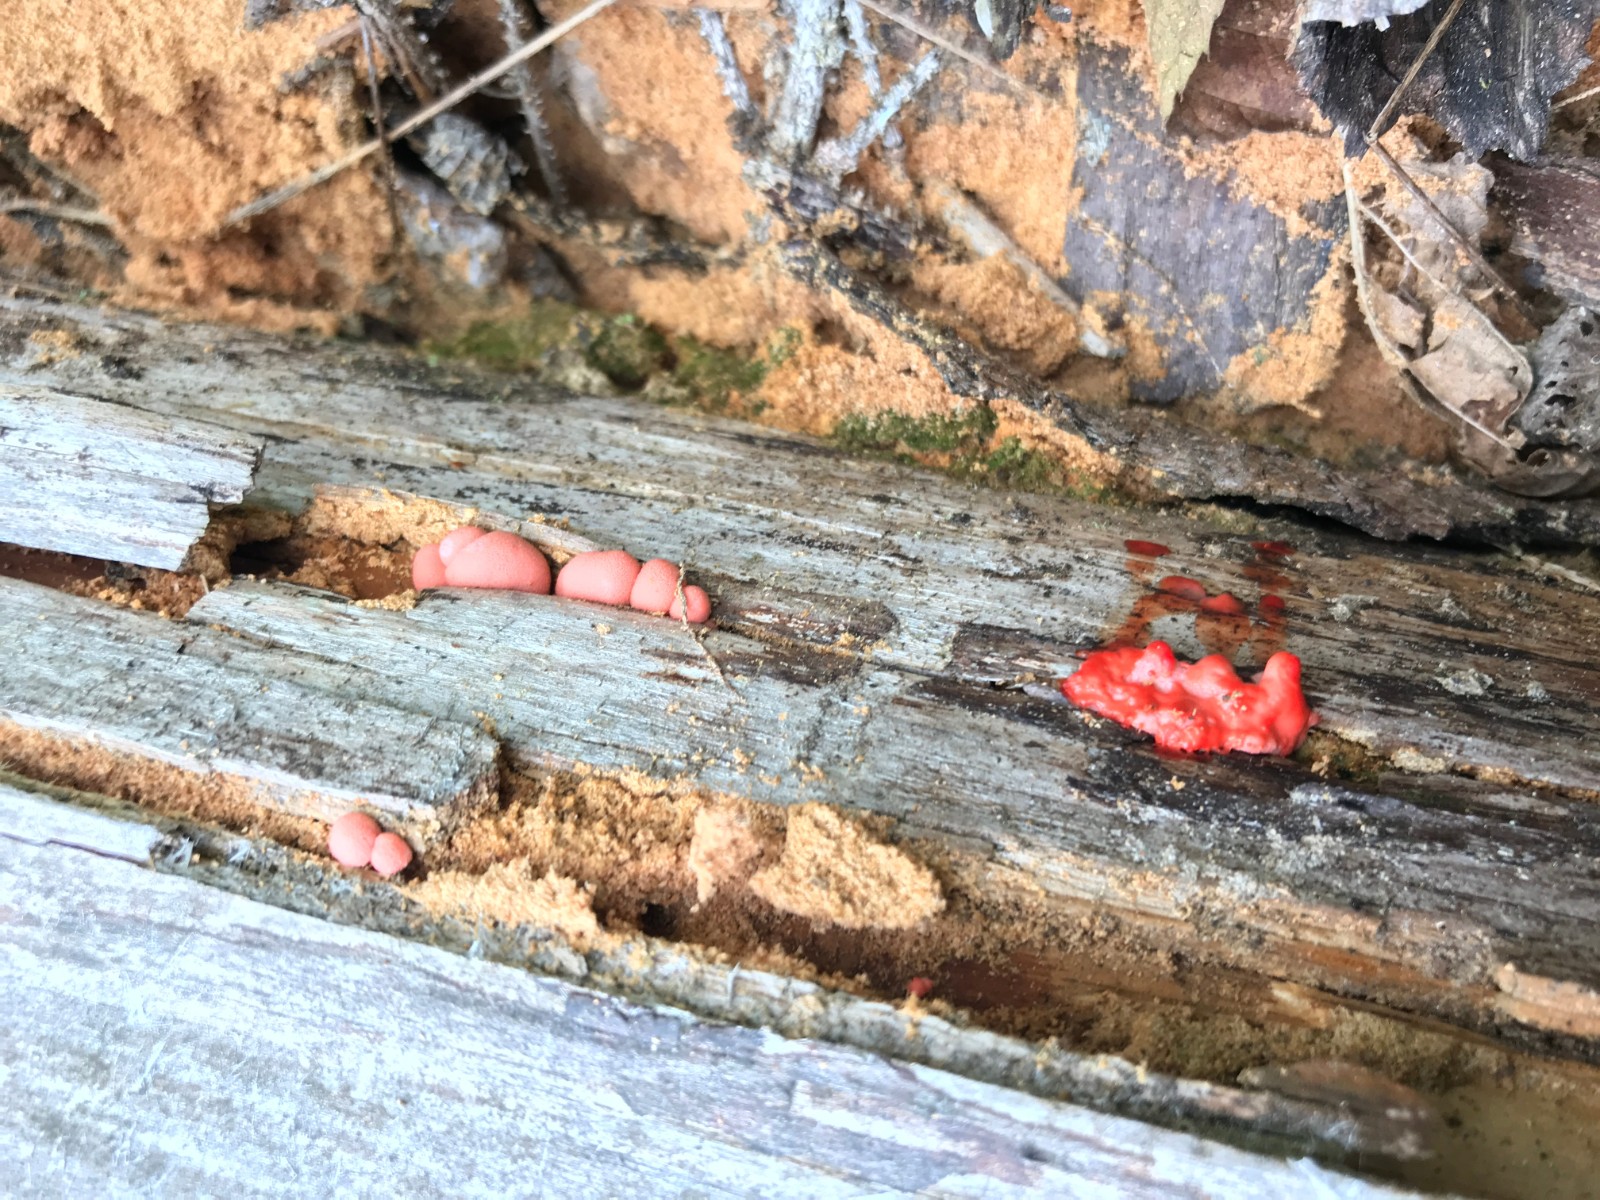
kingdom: Protozoa
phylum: Mycetozoa
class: Myxomycetes
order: Cribrariales
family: Tubiferaceae
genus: Lycogala
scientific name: Lycogala epidendrum
